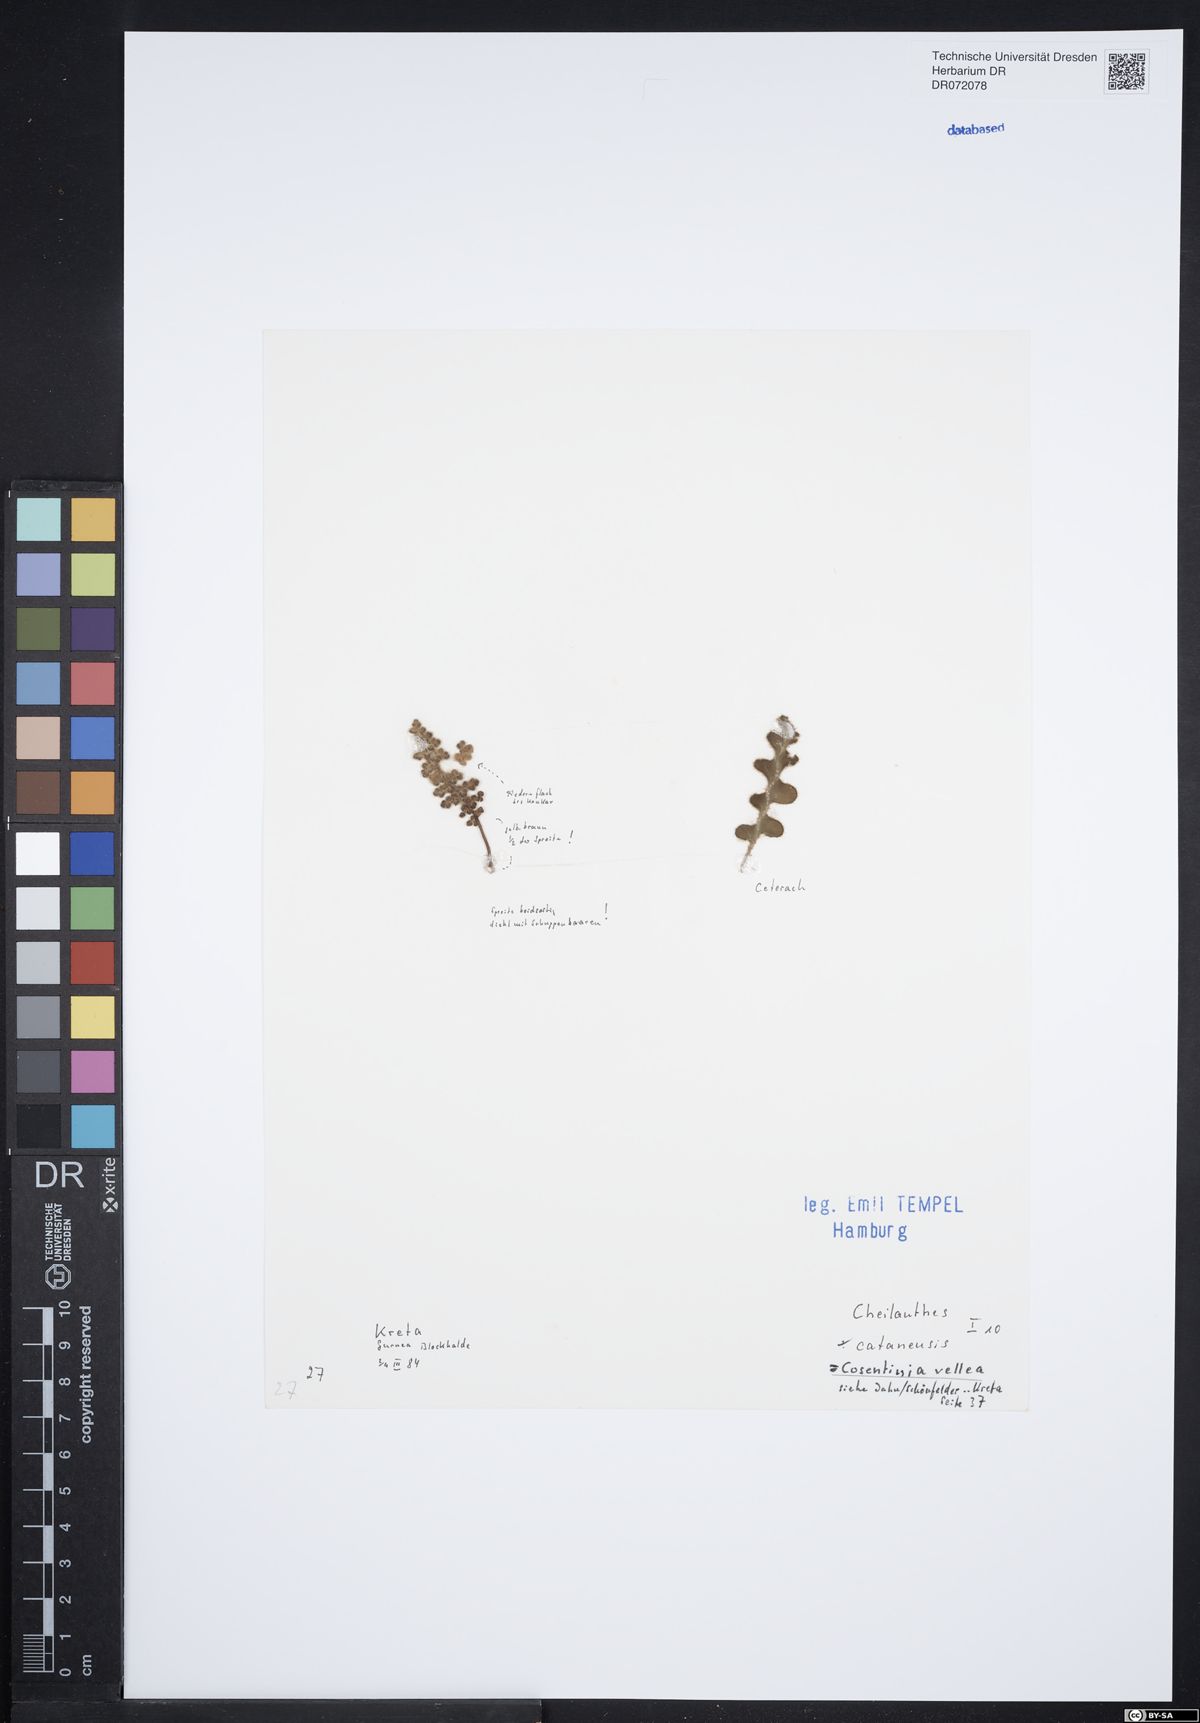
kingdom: Plantae
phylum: Tracheophyta
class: Polypodiopsida
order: Polypodiales
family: Pteridaceae
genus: Cosentinia
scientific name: Cosentinia vellea
